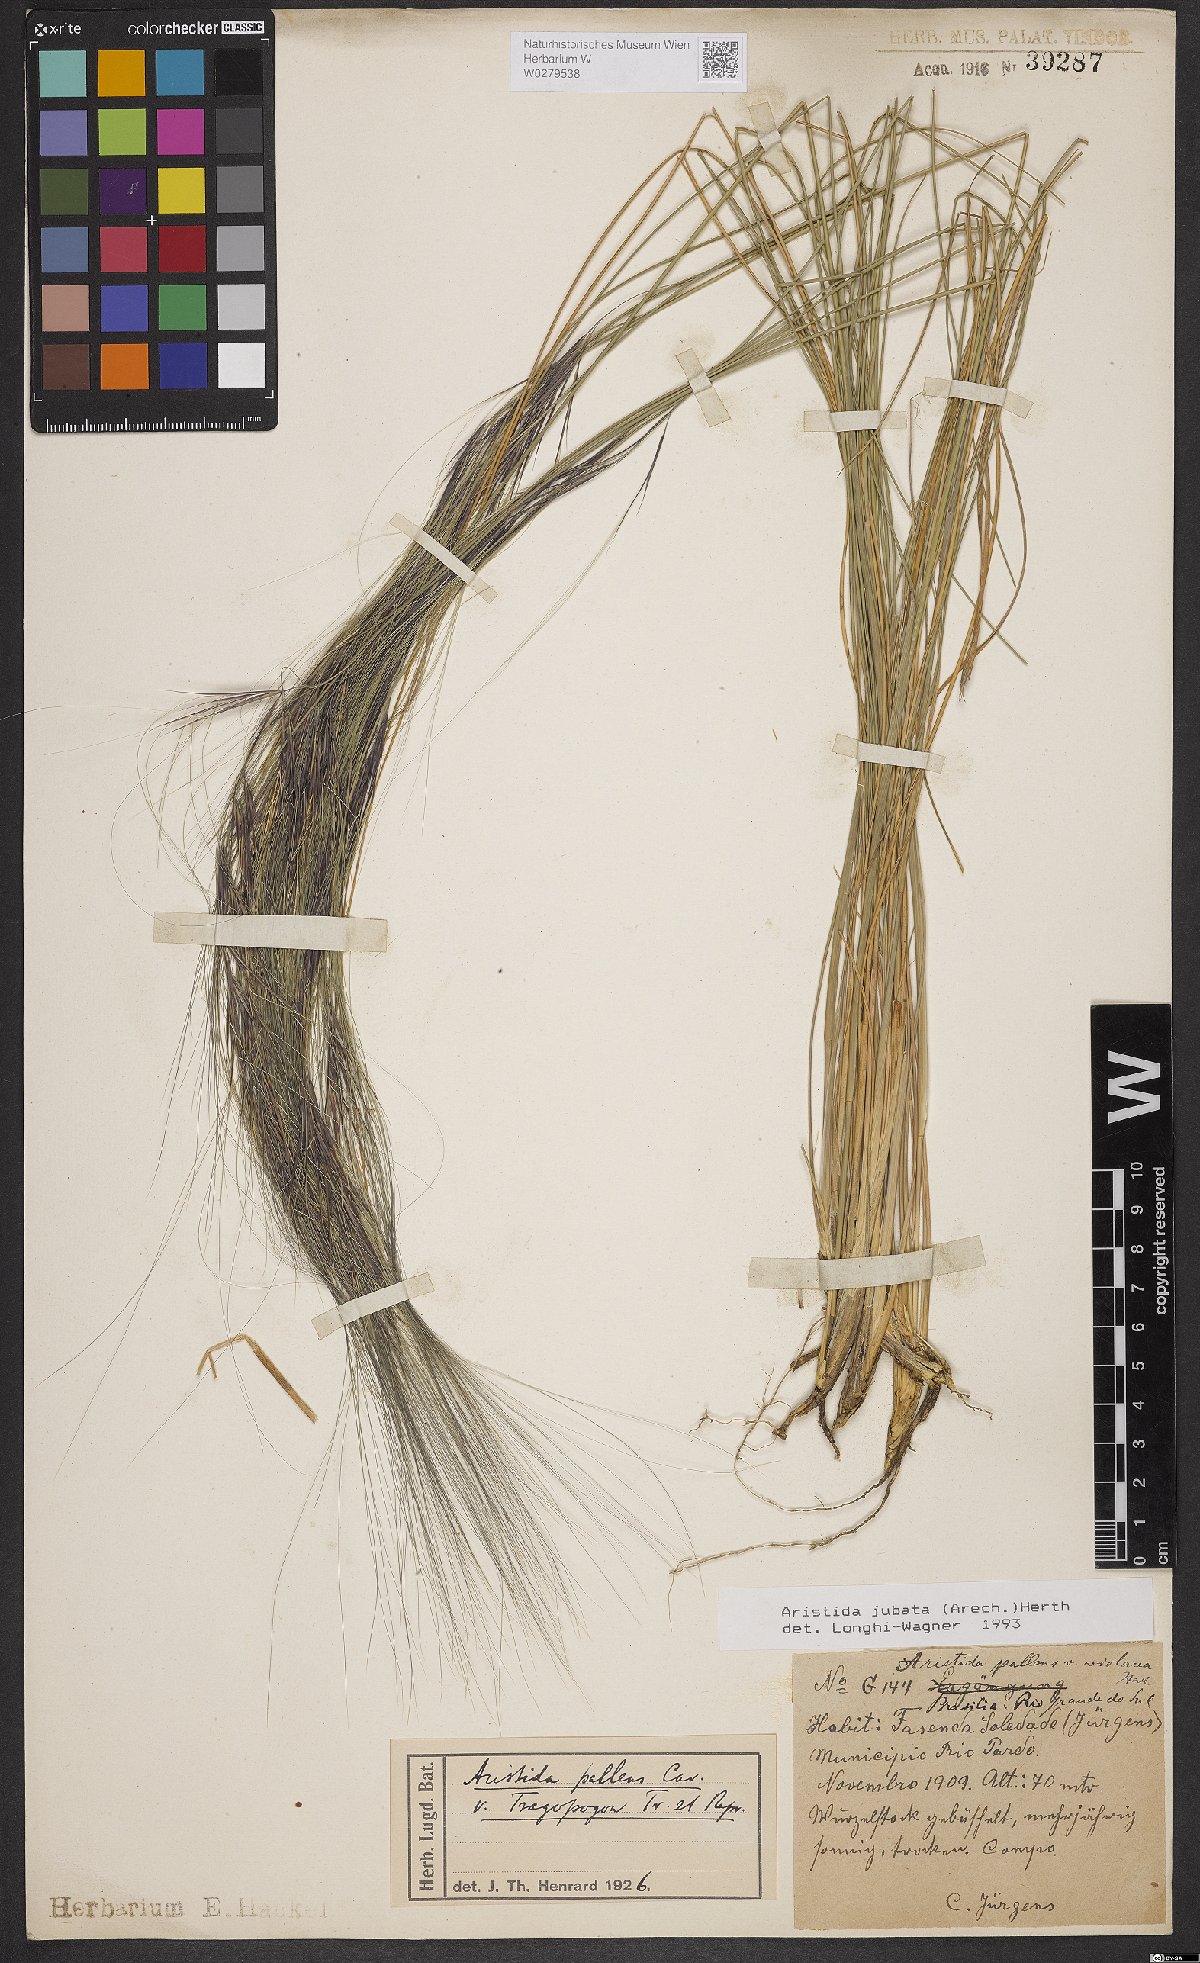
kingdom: Plantae
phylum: Tracheophyta
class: Liliopsida
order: Poales
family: Poaceae
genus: Aristida
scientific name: Aristida jubata
